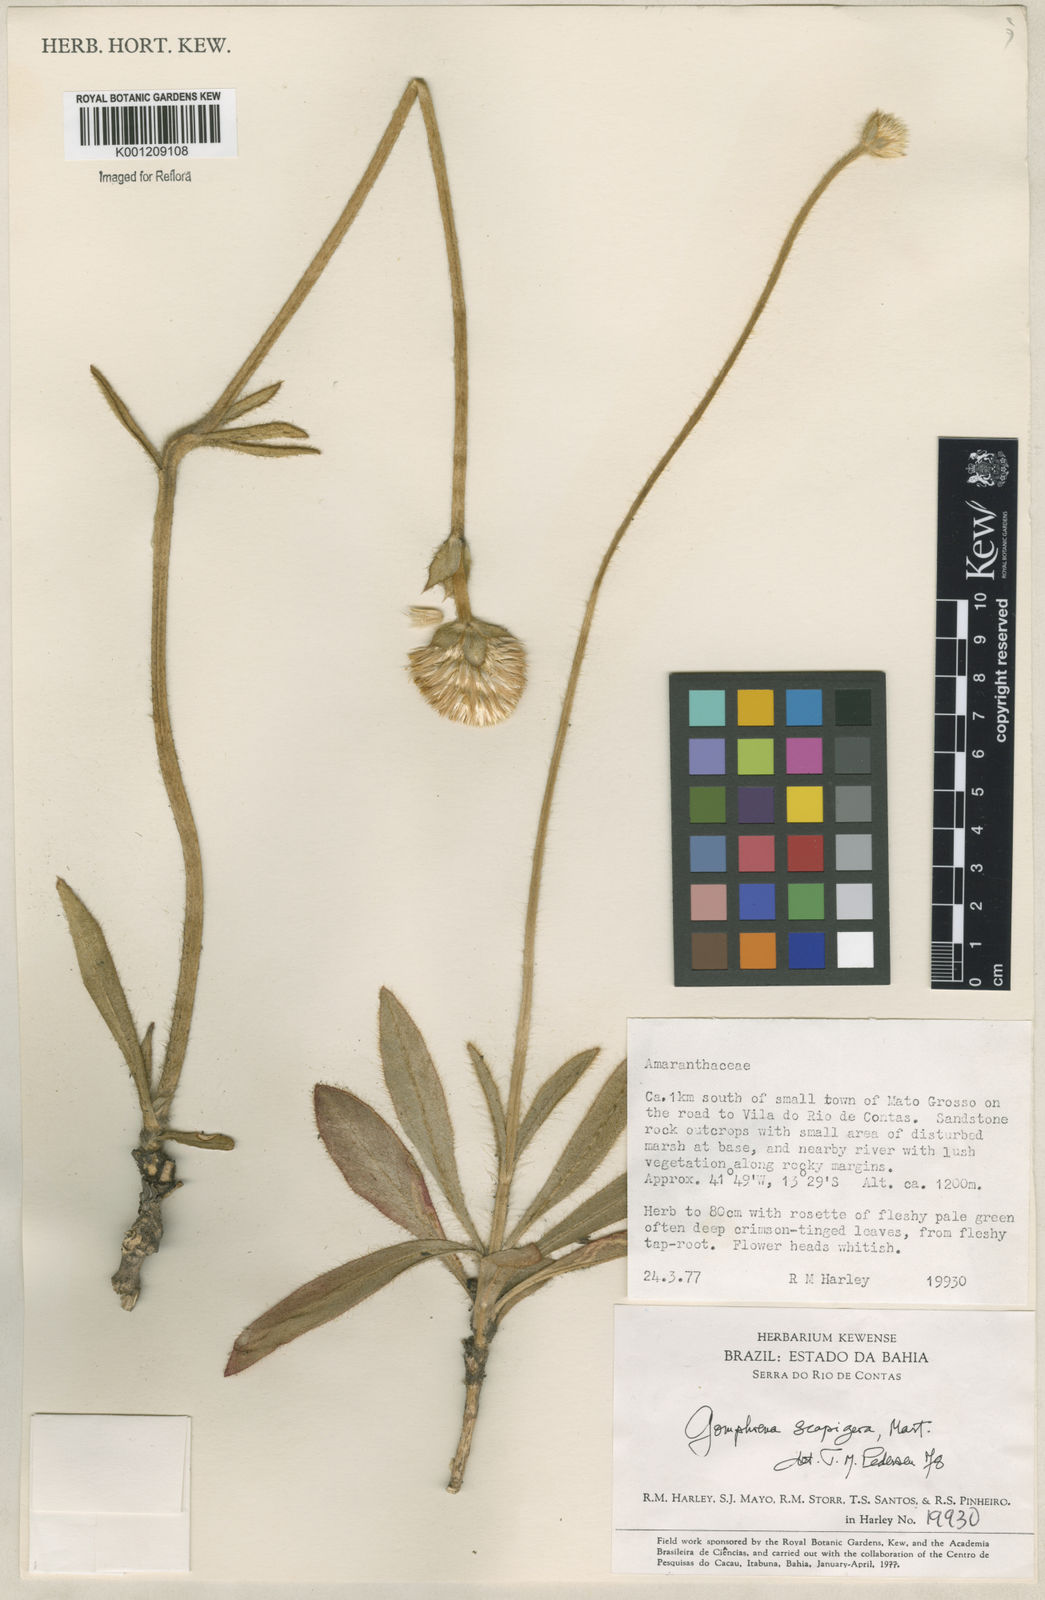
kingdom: Plantae
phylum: Tracheophyta
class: Magnoliopsida
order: Caryophyllales
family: Amaranthaceae
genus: Gomphrena
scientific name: Gomphrena scapigera
